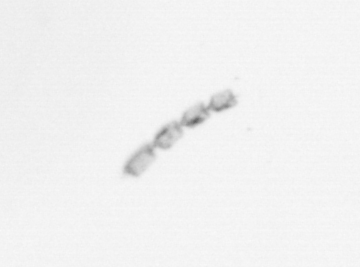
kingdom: Chromista
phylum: Ochrophyta
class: Bacillariophyceae
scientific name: Bacillariophyceae
